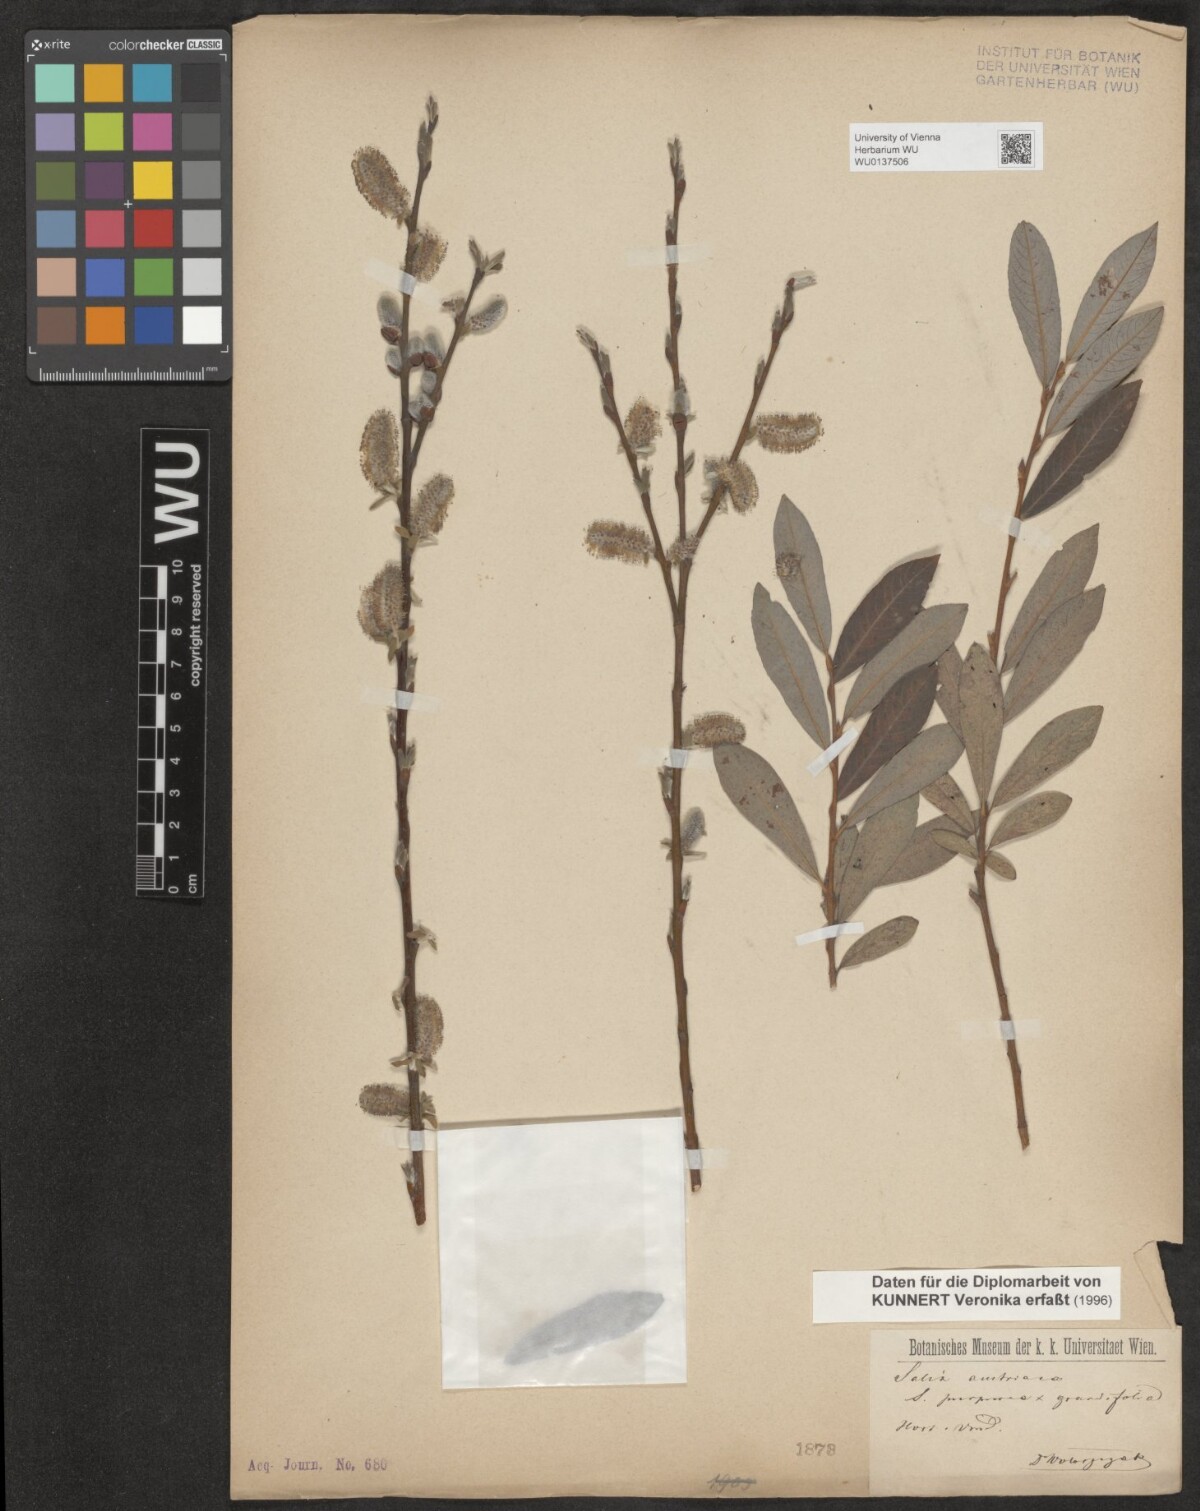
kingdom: Plantae
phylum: Tracheophyta
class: Magnoliopsida
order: Malpighiales
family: Salicaceae
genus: Salix
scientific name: Salix austriaca
